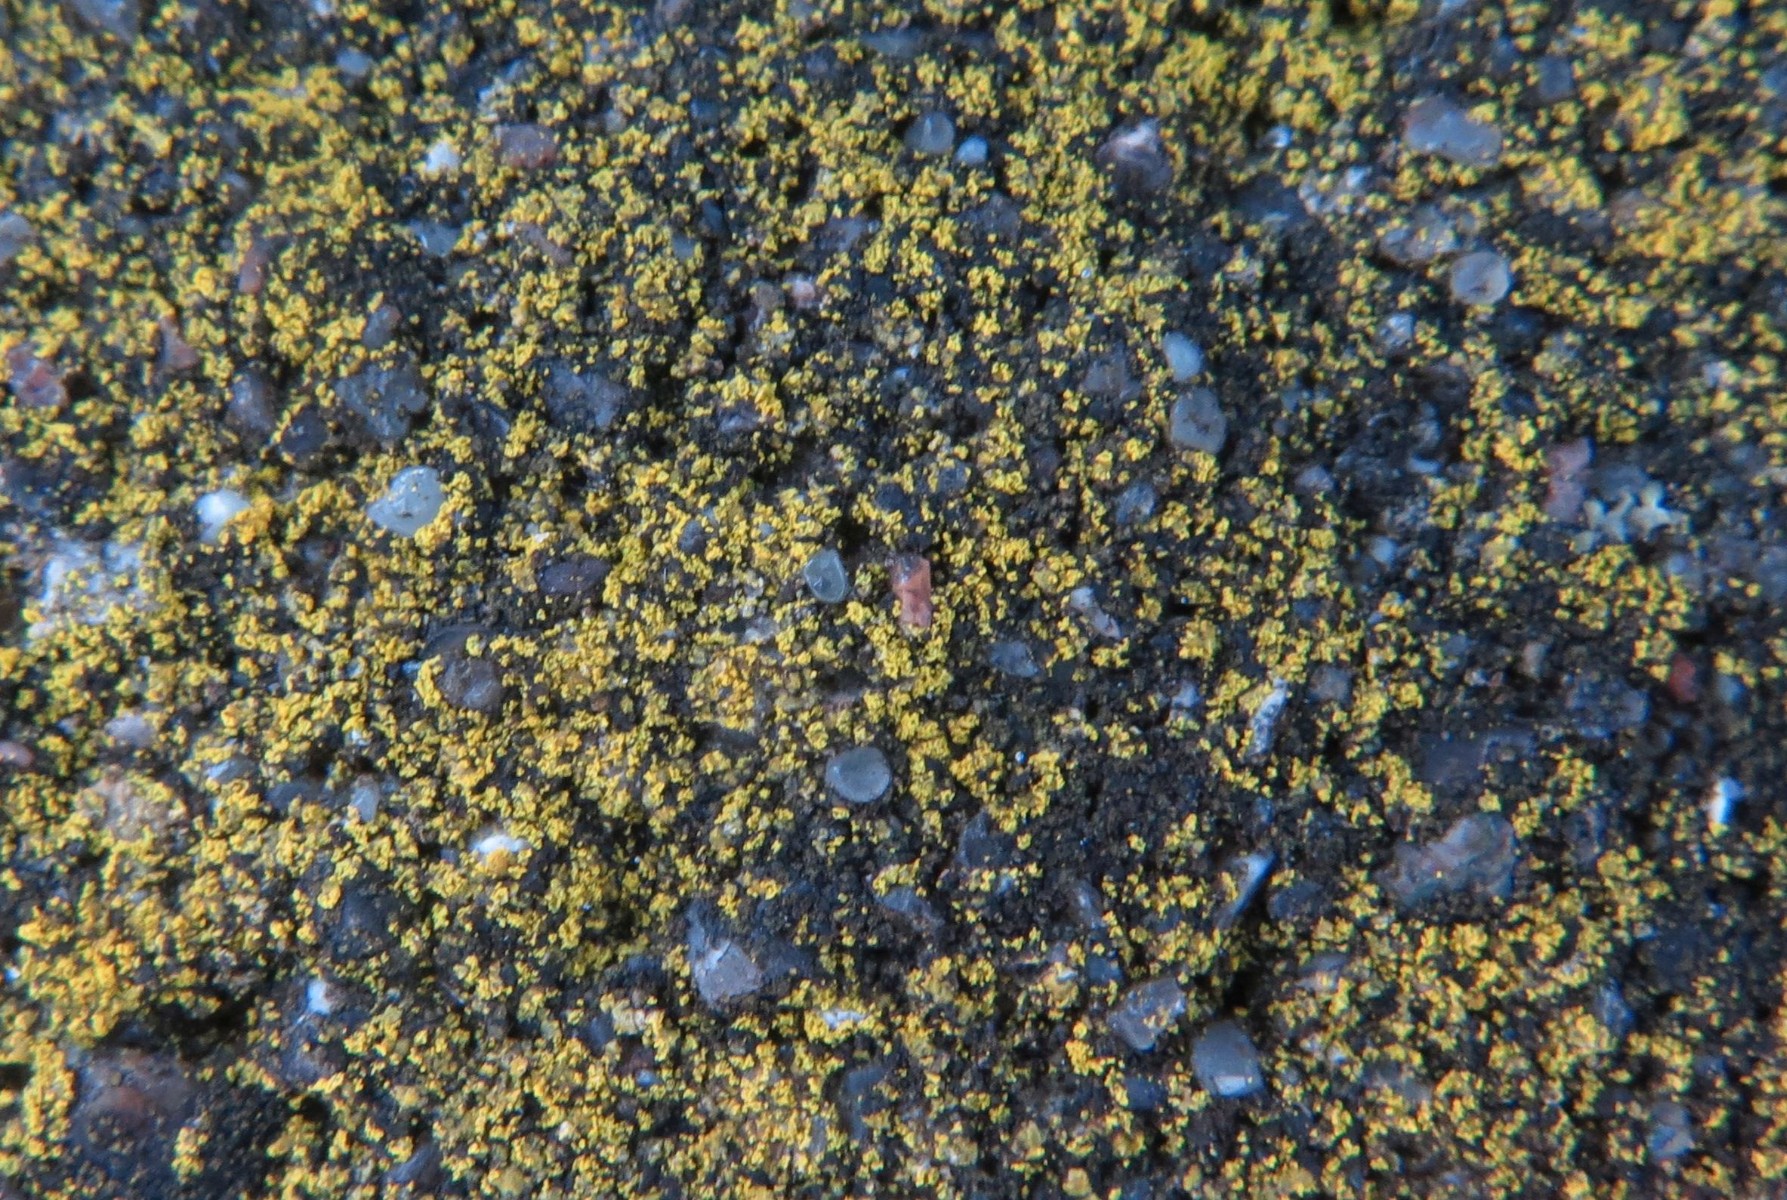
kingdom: Fungi
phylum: Ascomycota
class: Candelariomycetes
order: Candelariales
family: Candelariaceae
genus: Candelariella
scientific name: Candelariella aurella
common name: liden æggeblommelav
